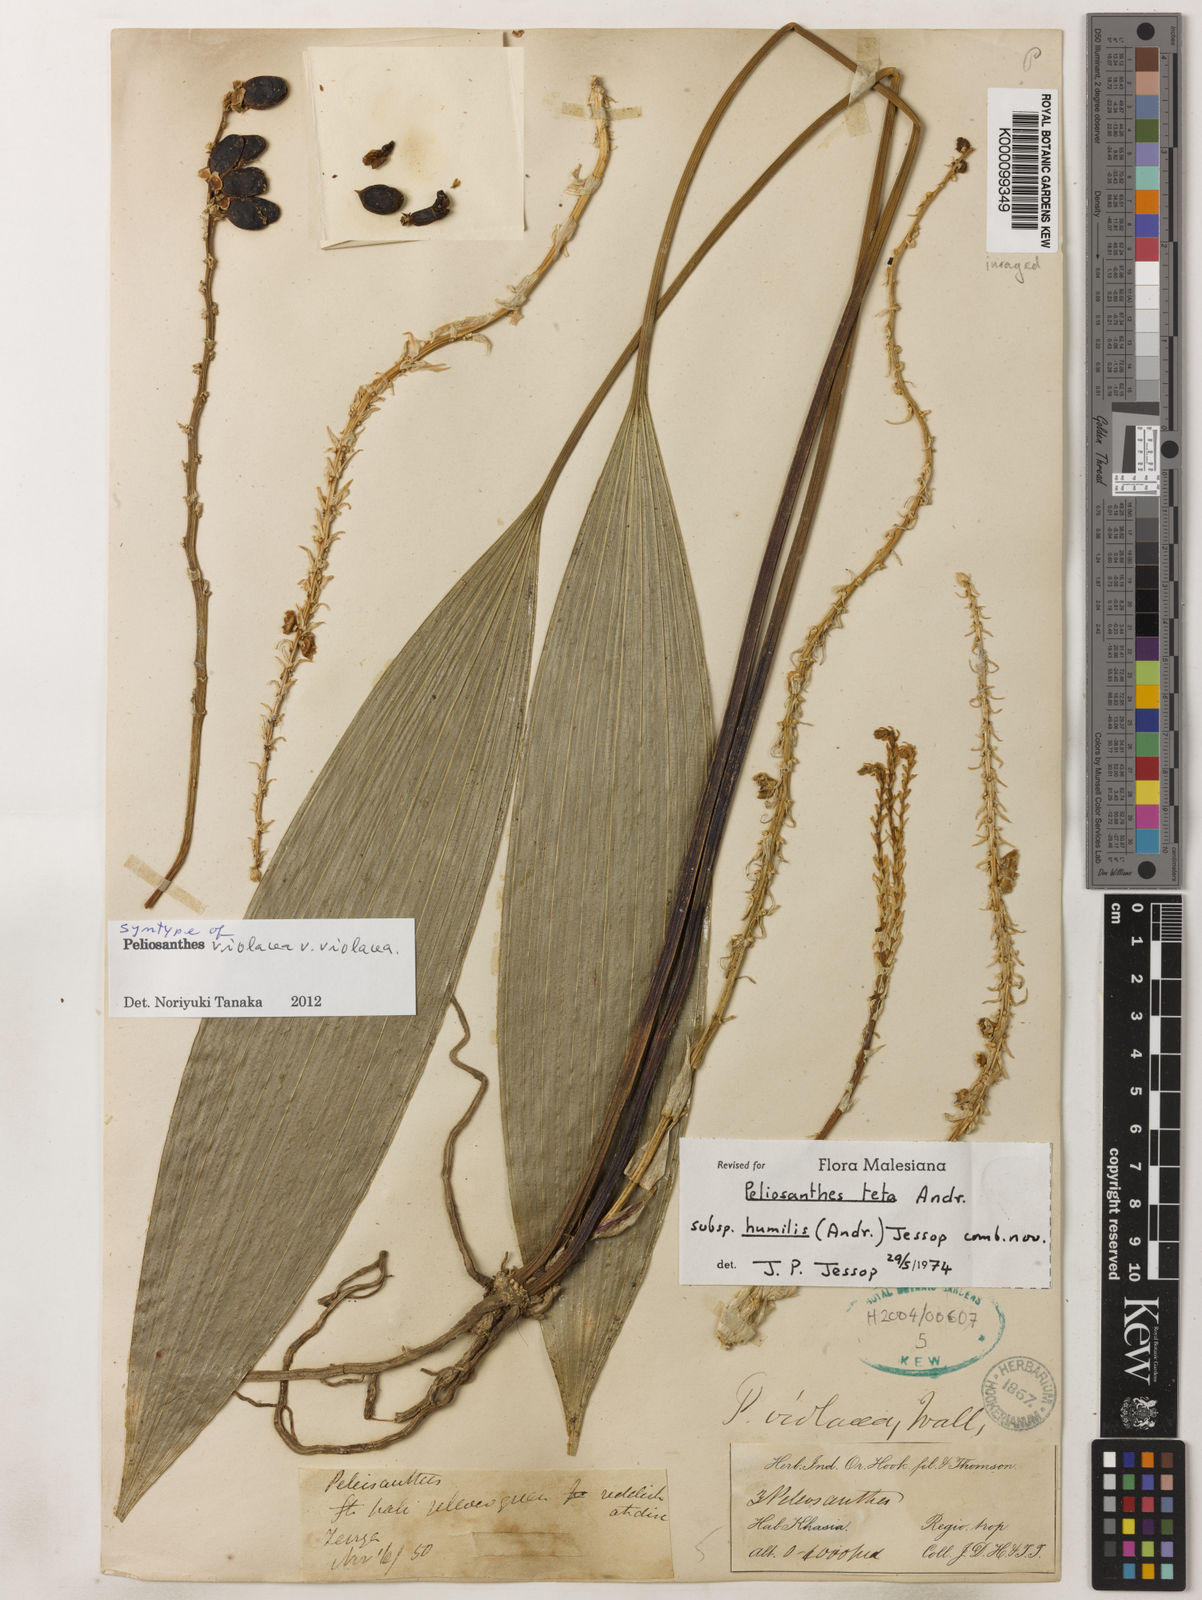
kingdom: Plantae
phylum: Tracheophyta
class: Liliopsida
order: Asparagales
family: Asparagaceae
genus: Peliosanthes
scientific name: Peliosanthes teta
